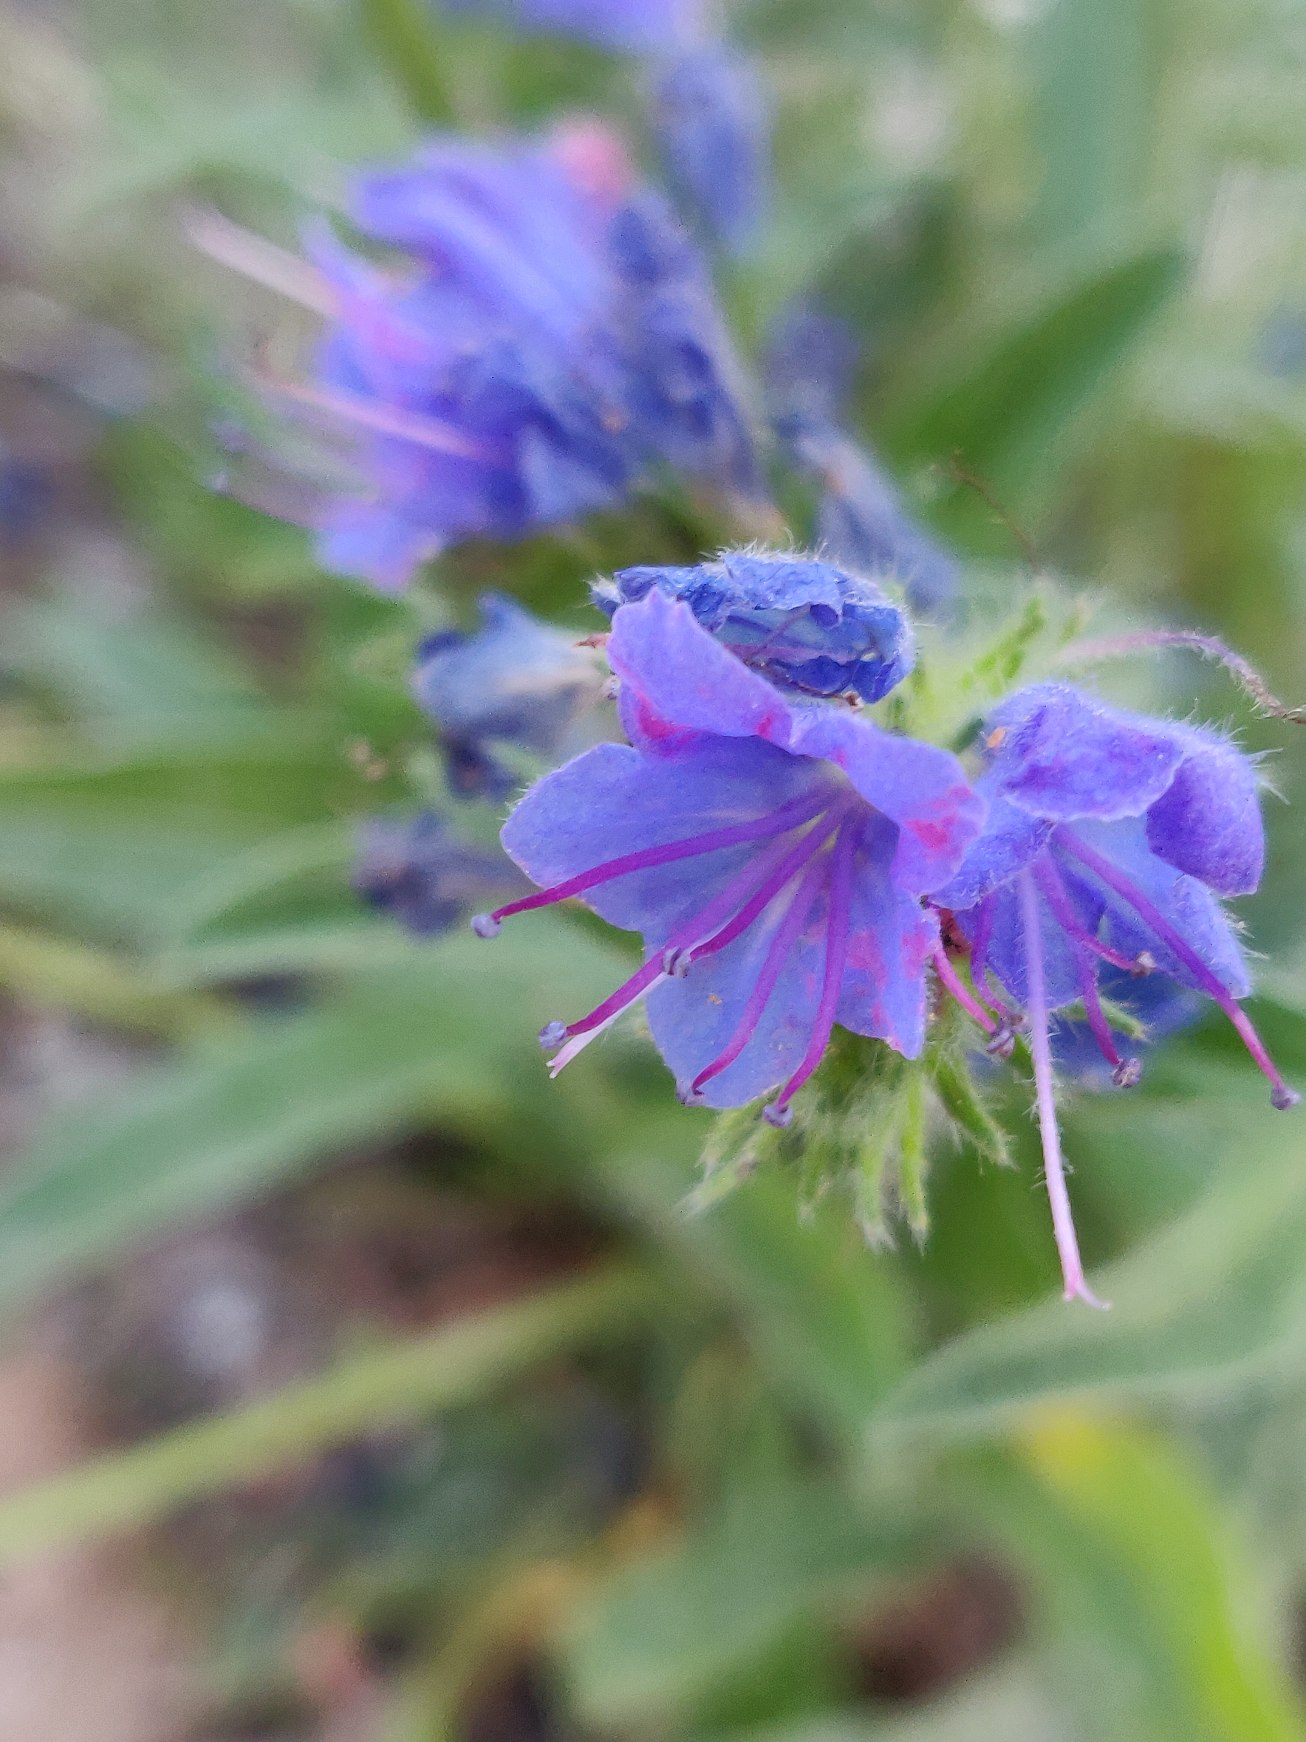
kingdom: Plantae
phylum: Tracheophyta
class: Magnoliopsida
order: Boraginales
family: Boraginaceae
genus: Echium
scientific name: Echium vulgare
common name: Slangehoved
